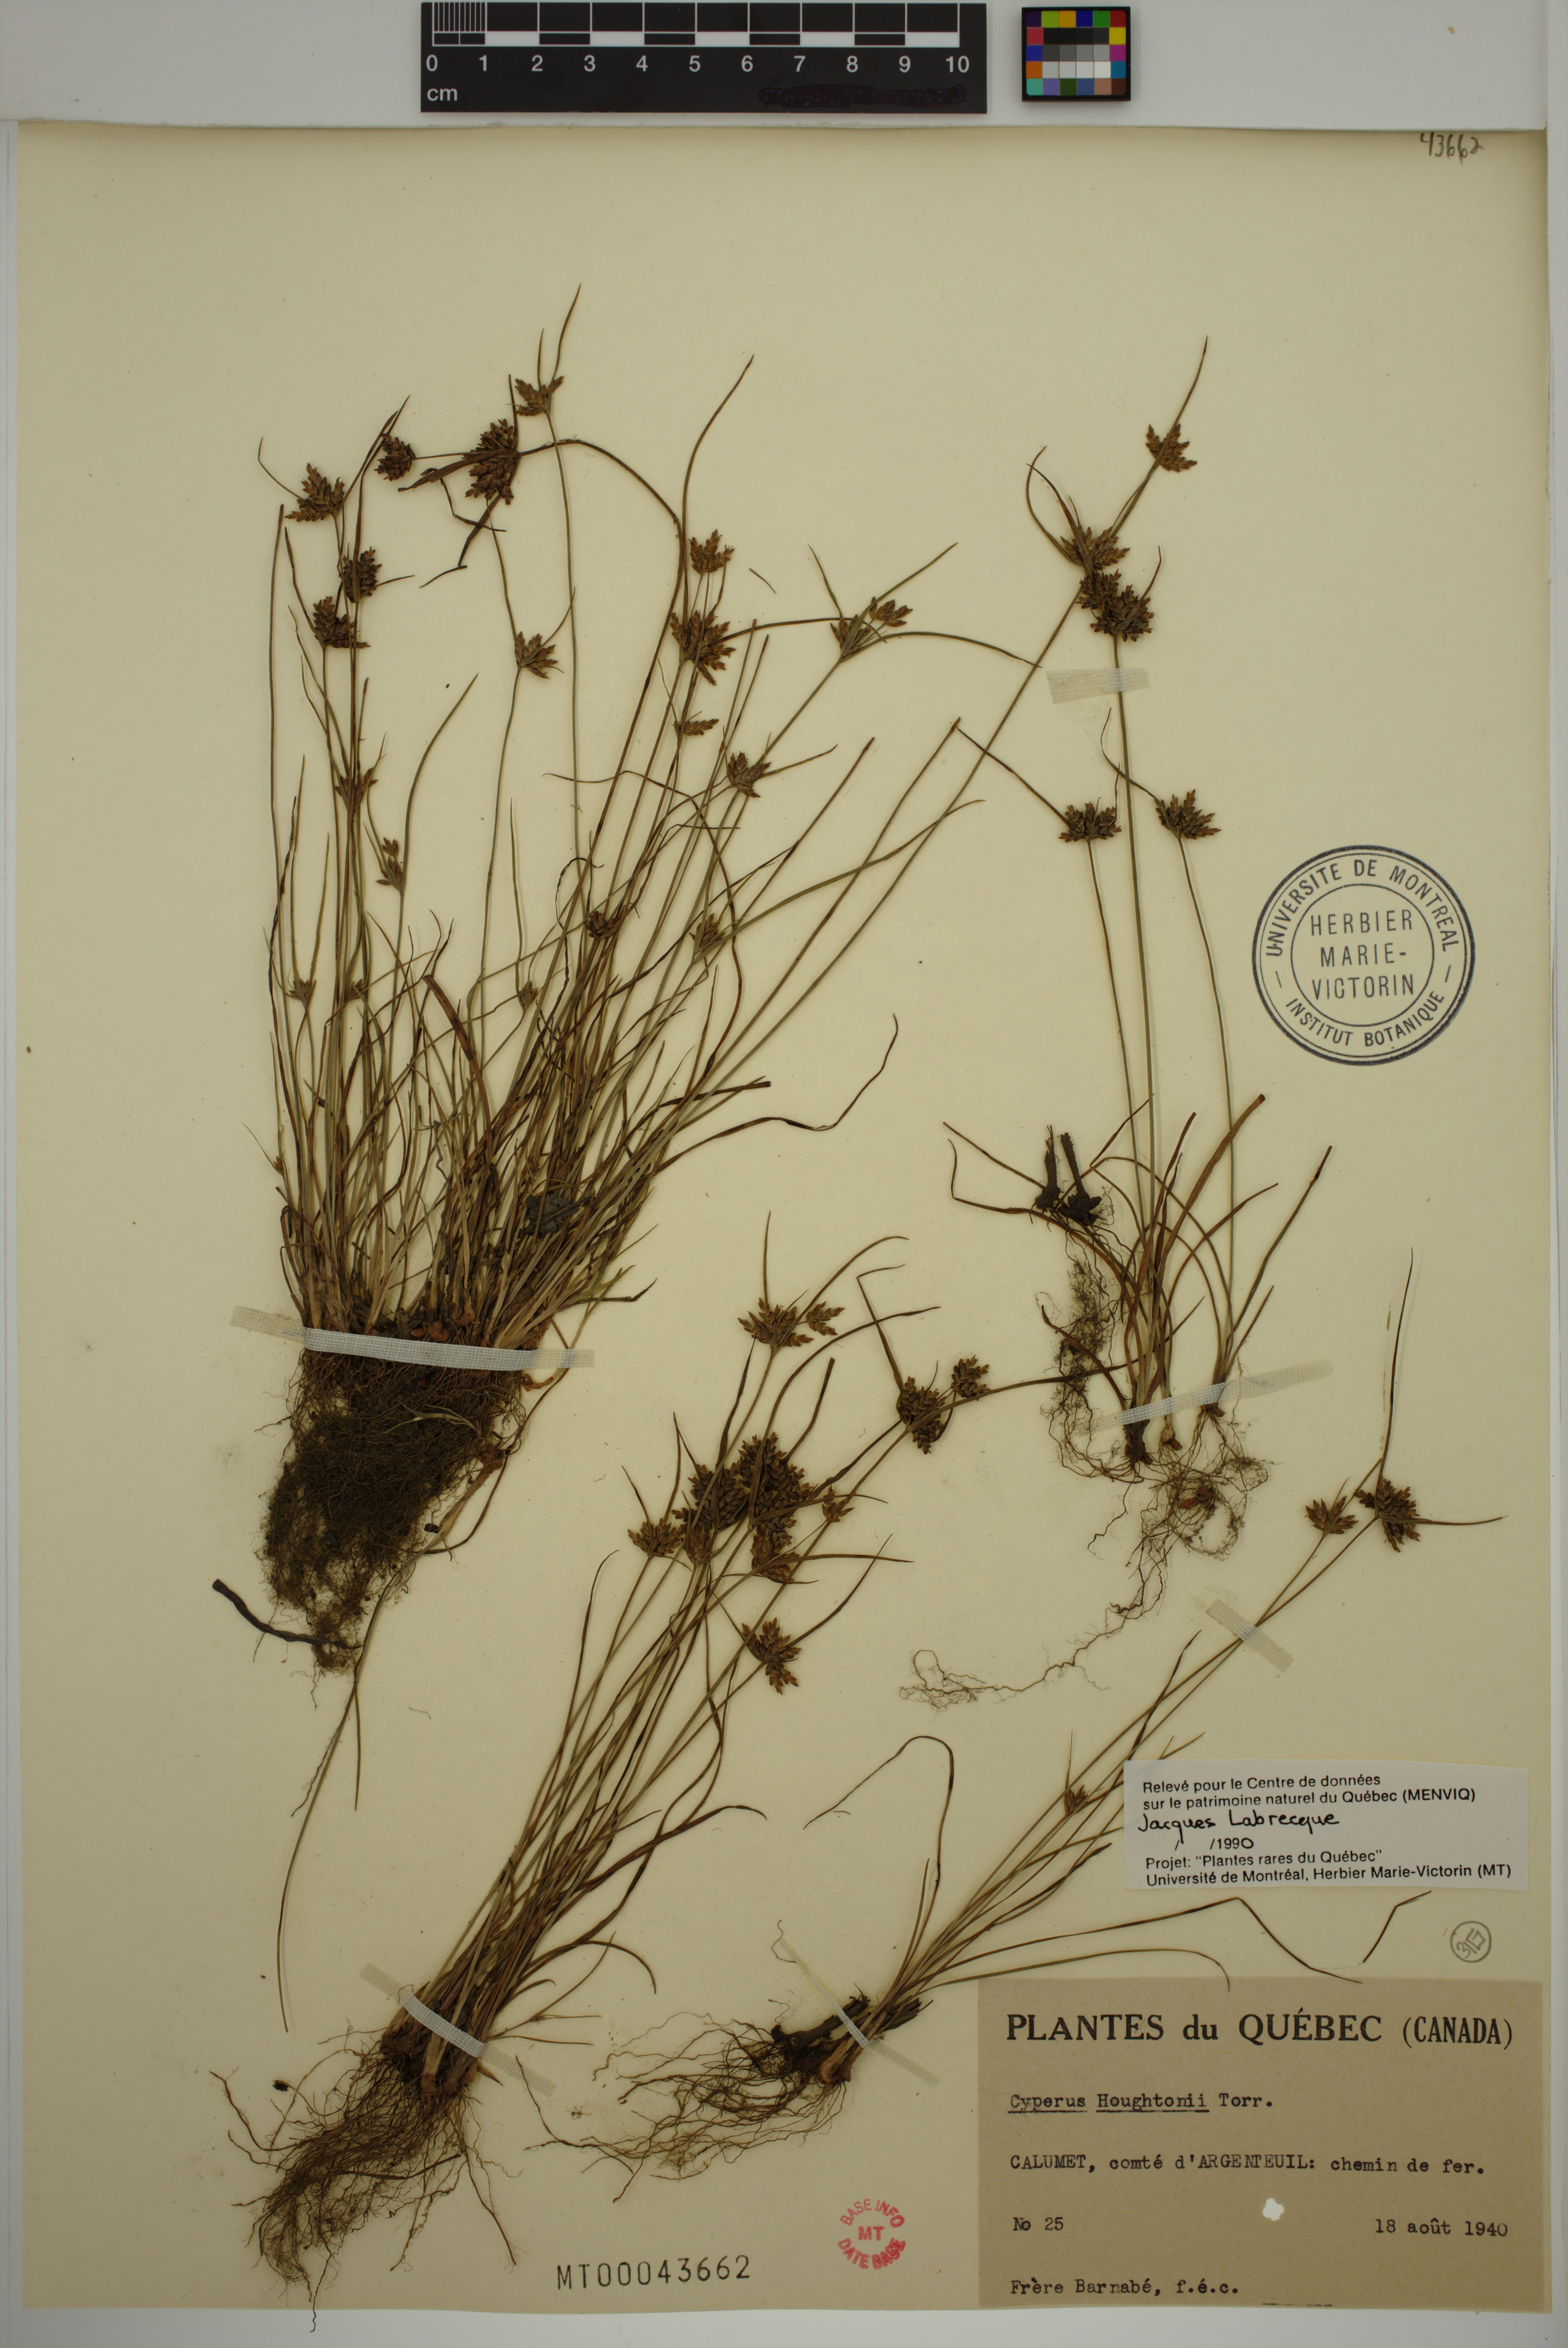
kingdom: Plantae
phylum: Tracheophyta
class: Liliopsida
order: Poales
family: Cyperaceae
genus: Cyperus
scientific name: Cyperus houghtonii
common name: Houghton's cyperus
